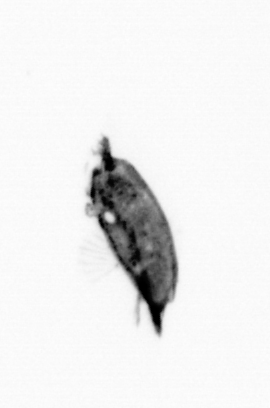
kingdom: Animalia
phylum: Arthropoda
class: Maxillopoda
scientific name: Maxillopoda
